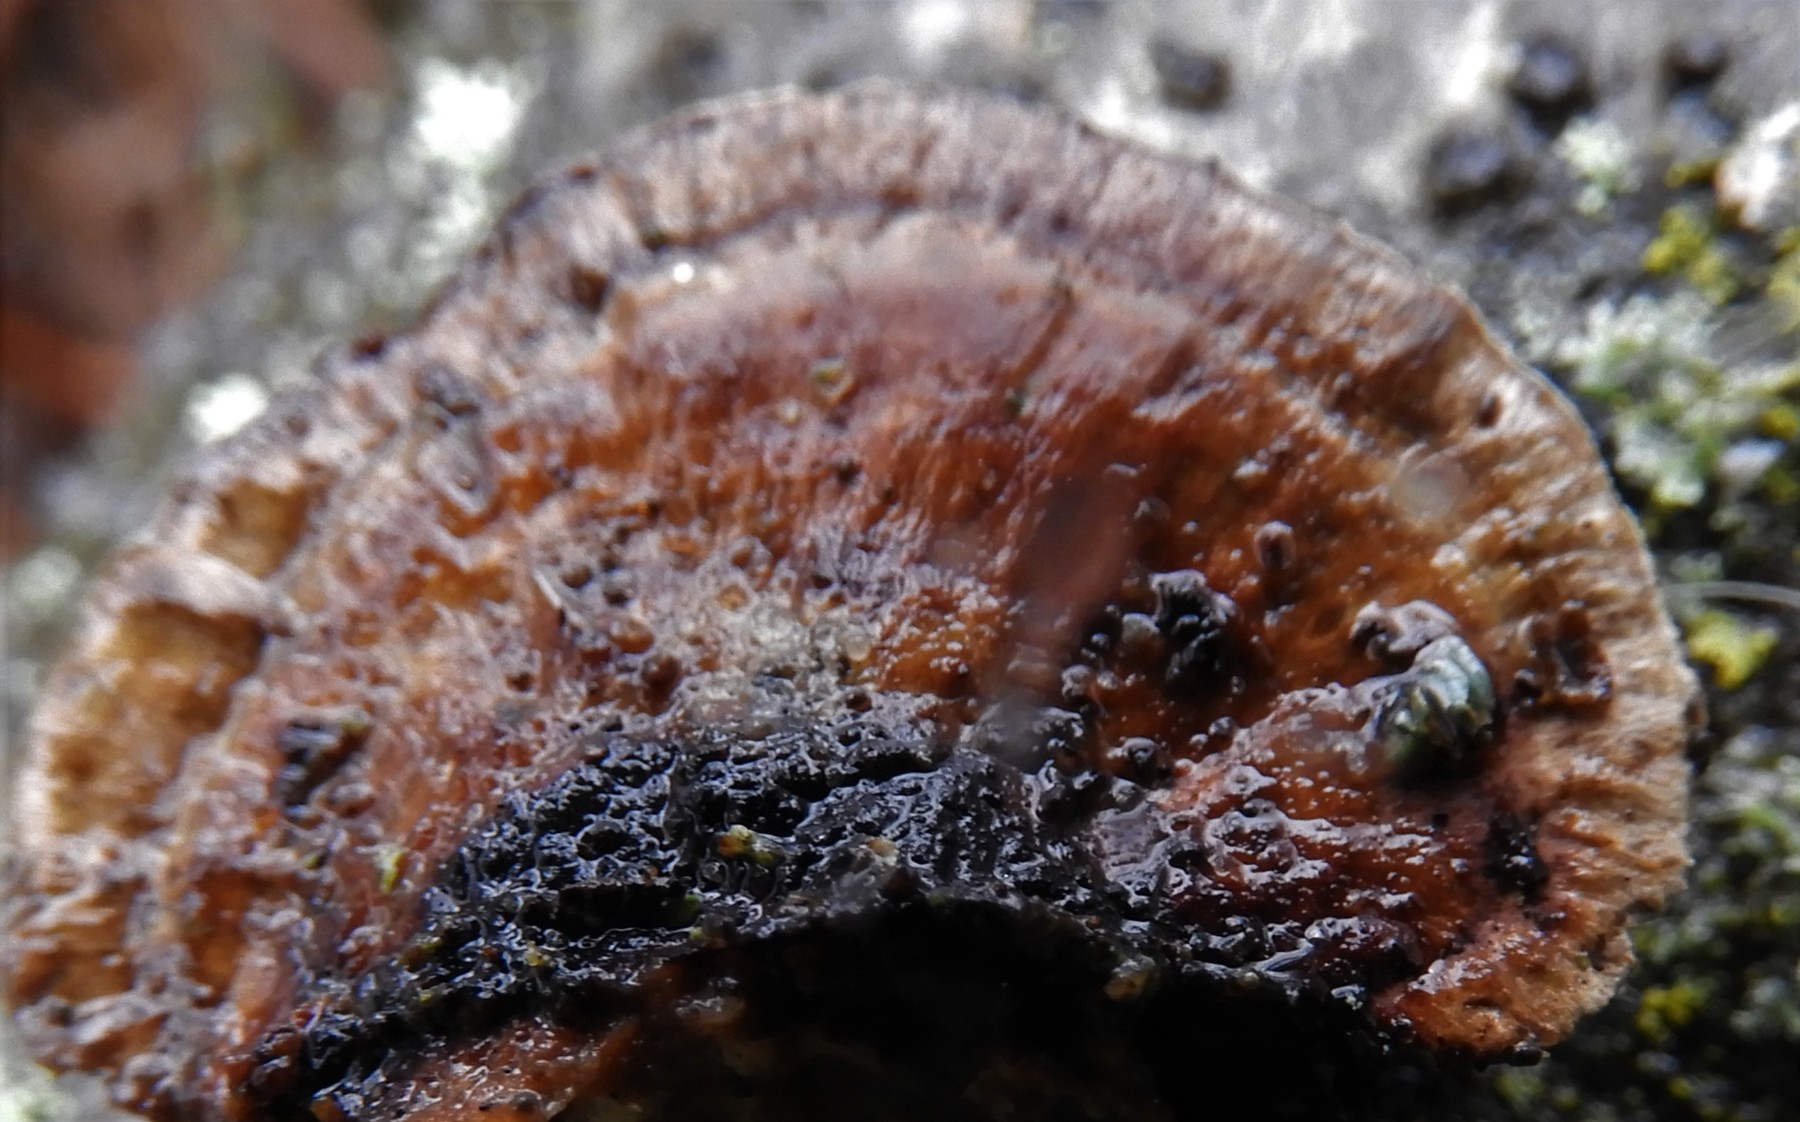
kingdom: Fungi
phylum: Basidiomycota
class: Agaricomycetes
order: Polyporales
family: Polyporaceae
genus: Daedaleopsis
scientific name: Daedaleopsis confragosa
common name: rødmende læderporesvamp
